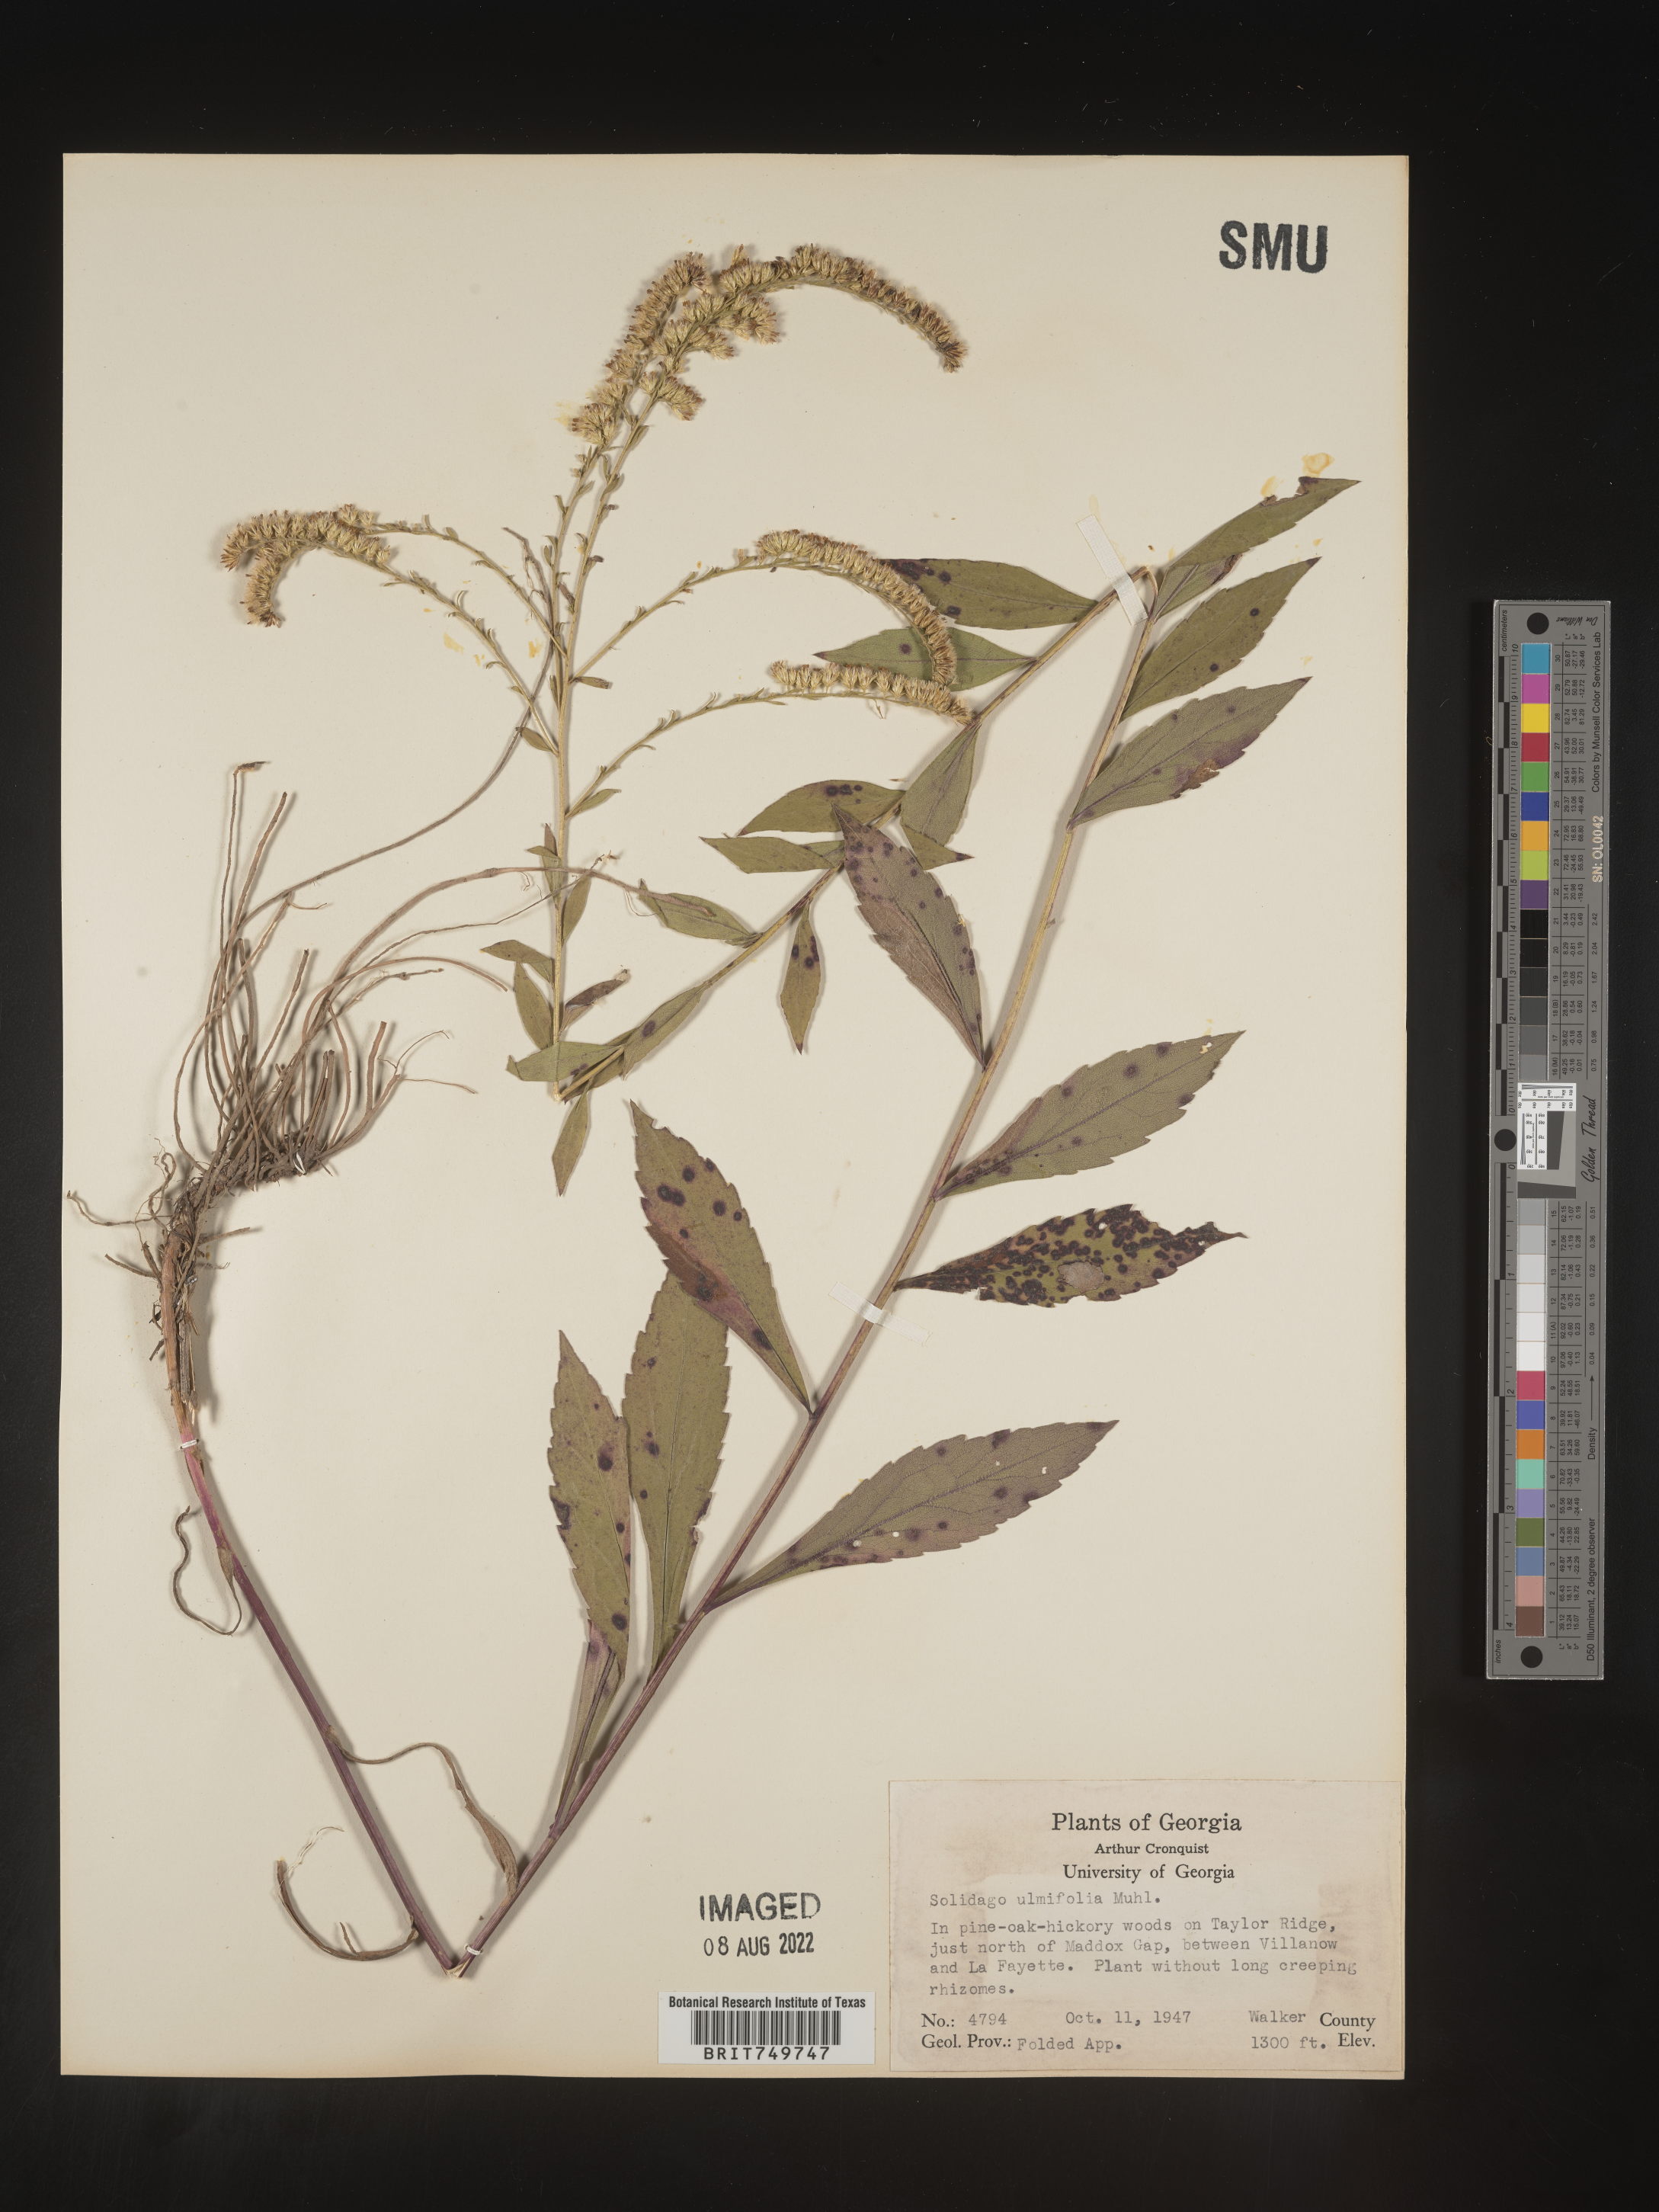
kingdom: Plantae
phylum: Tracheophyta
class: Magnoliopsida
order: Asterales
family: Asteraceae
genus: Solidago
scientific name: Solidago ulmifolia
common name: Elm-leaf goldenrod
